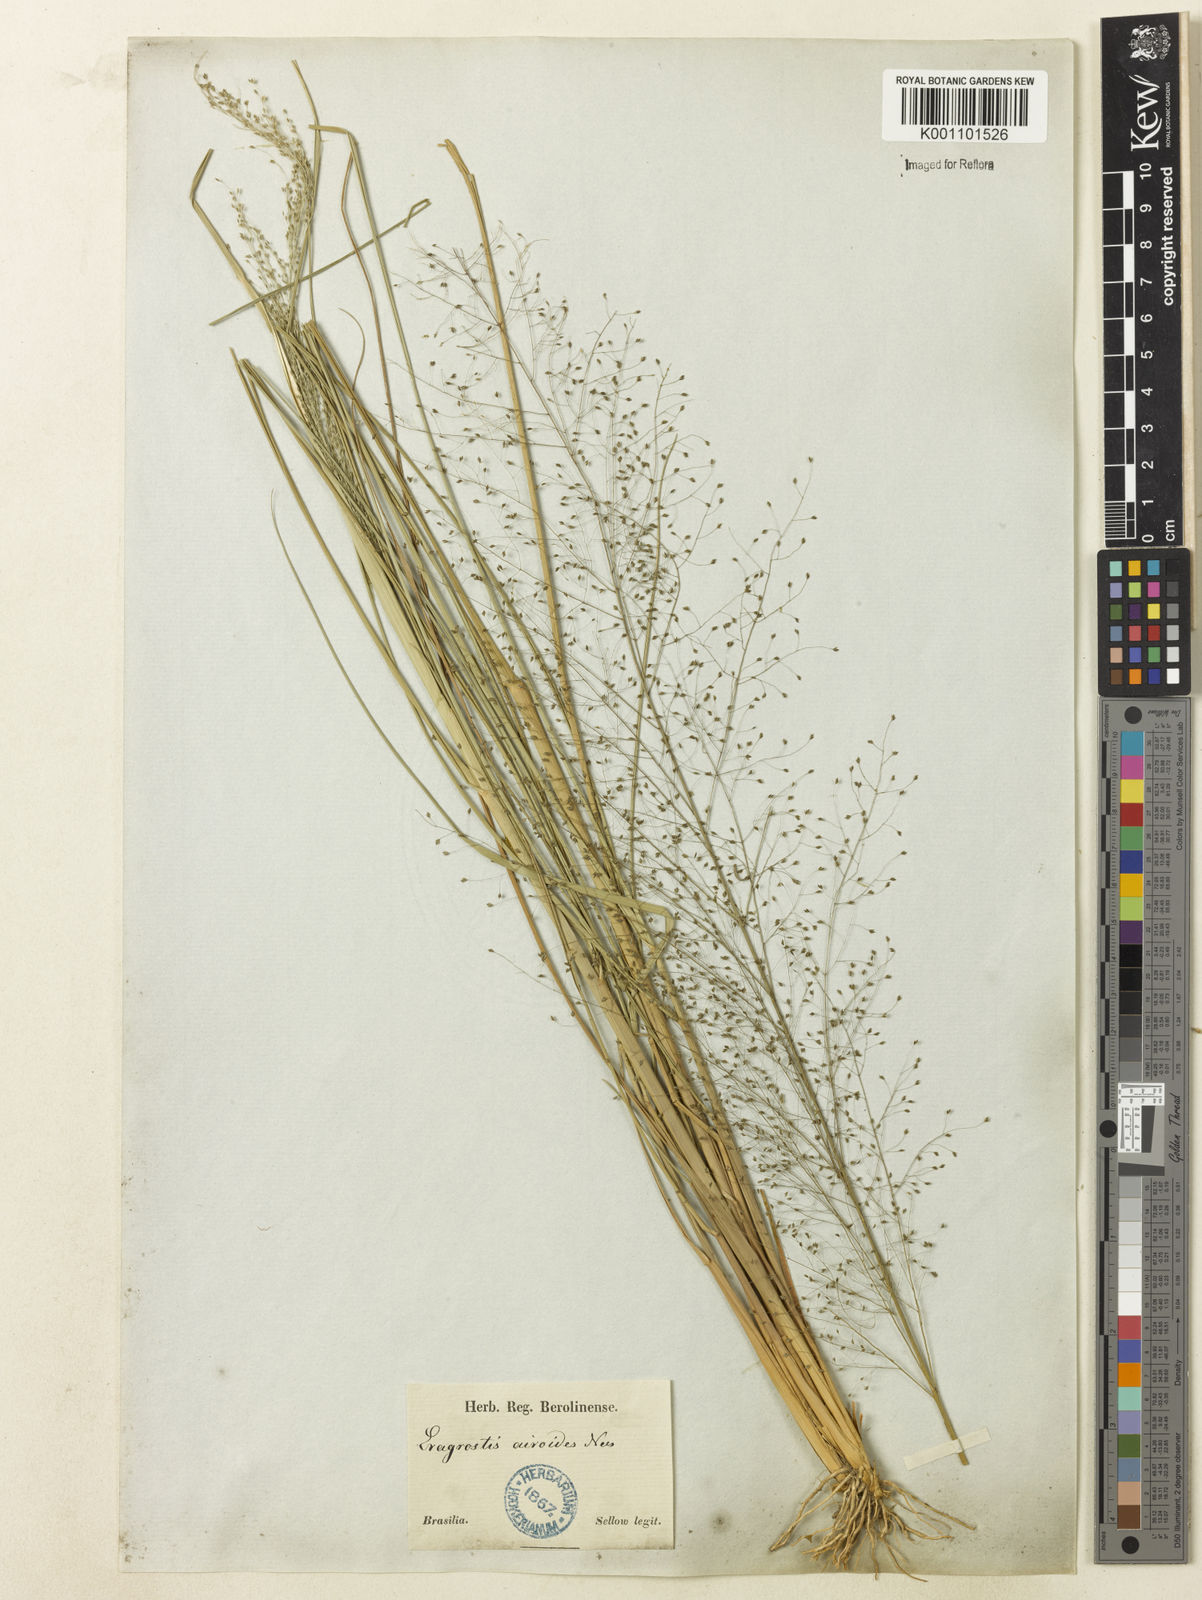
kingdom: Plantae
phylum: Tracheophyta
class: Liliopsida
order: Poales
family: Poaceae
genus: Eragrostis
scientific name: Eragrostis airoides
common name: Darnel lovegrass
